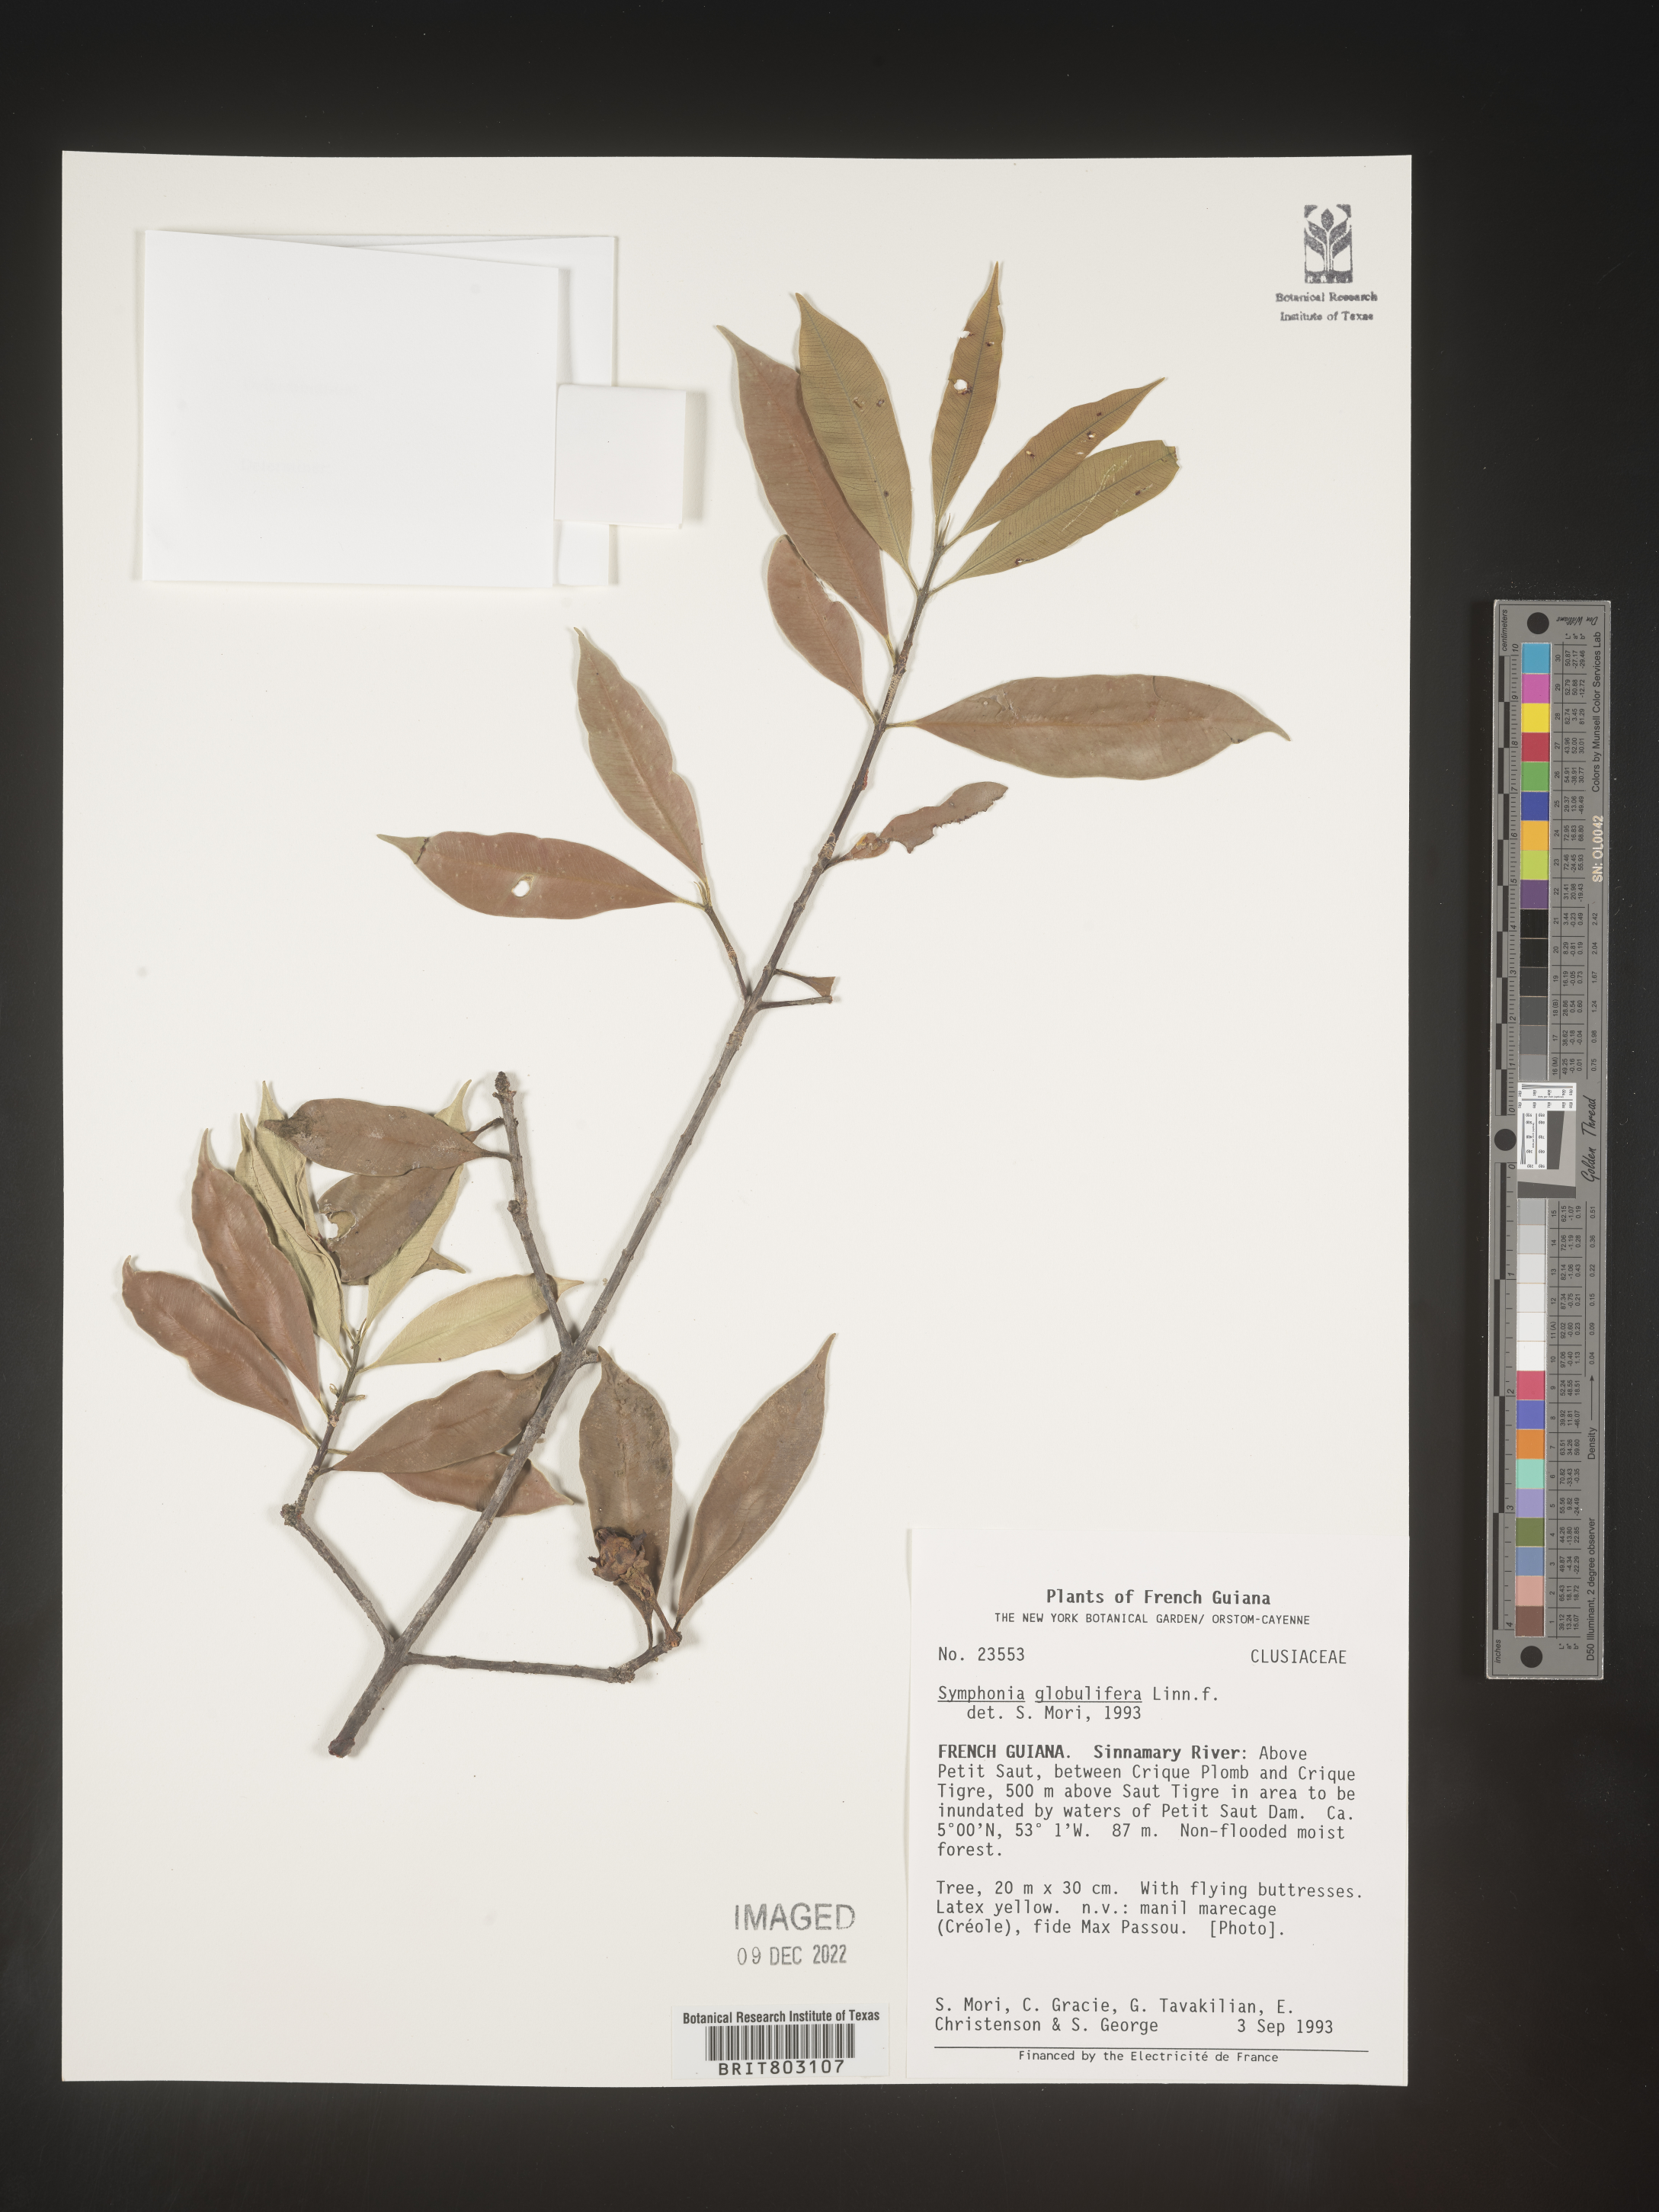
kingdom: Plantae
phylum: Tracheophyta
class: Magnoliopsida
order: Malpighiales
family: Clusiaceae
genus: Symphonia
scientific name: Symphonia
